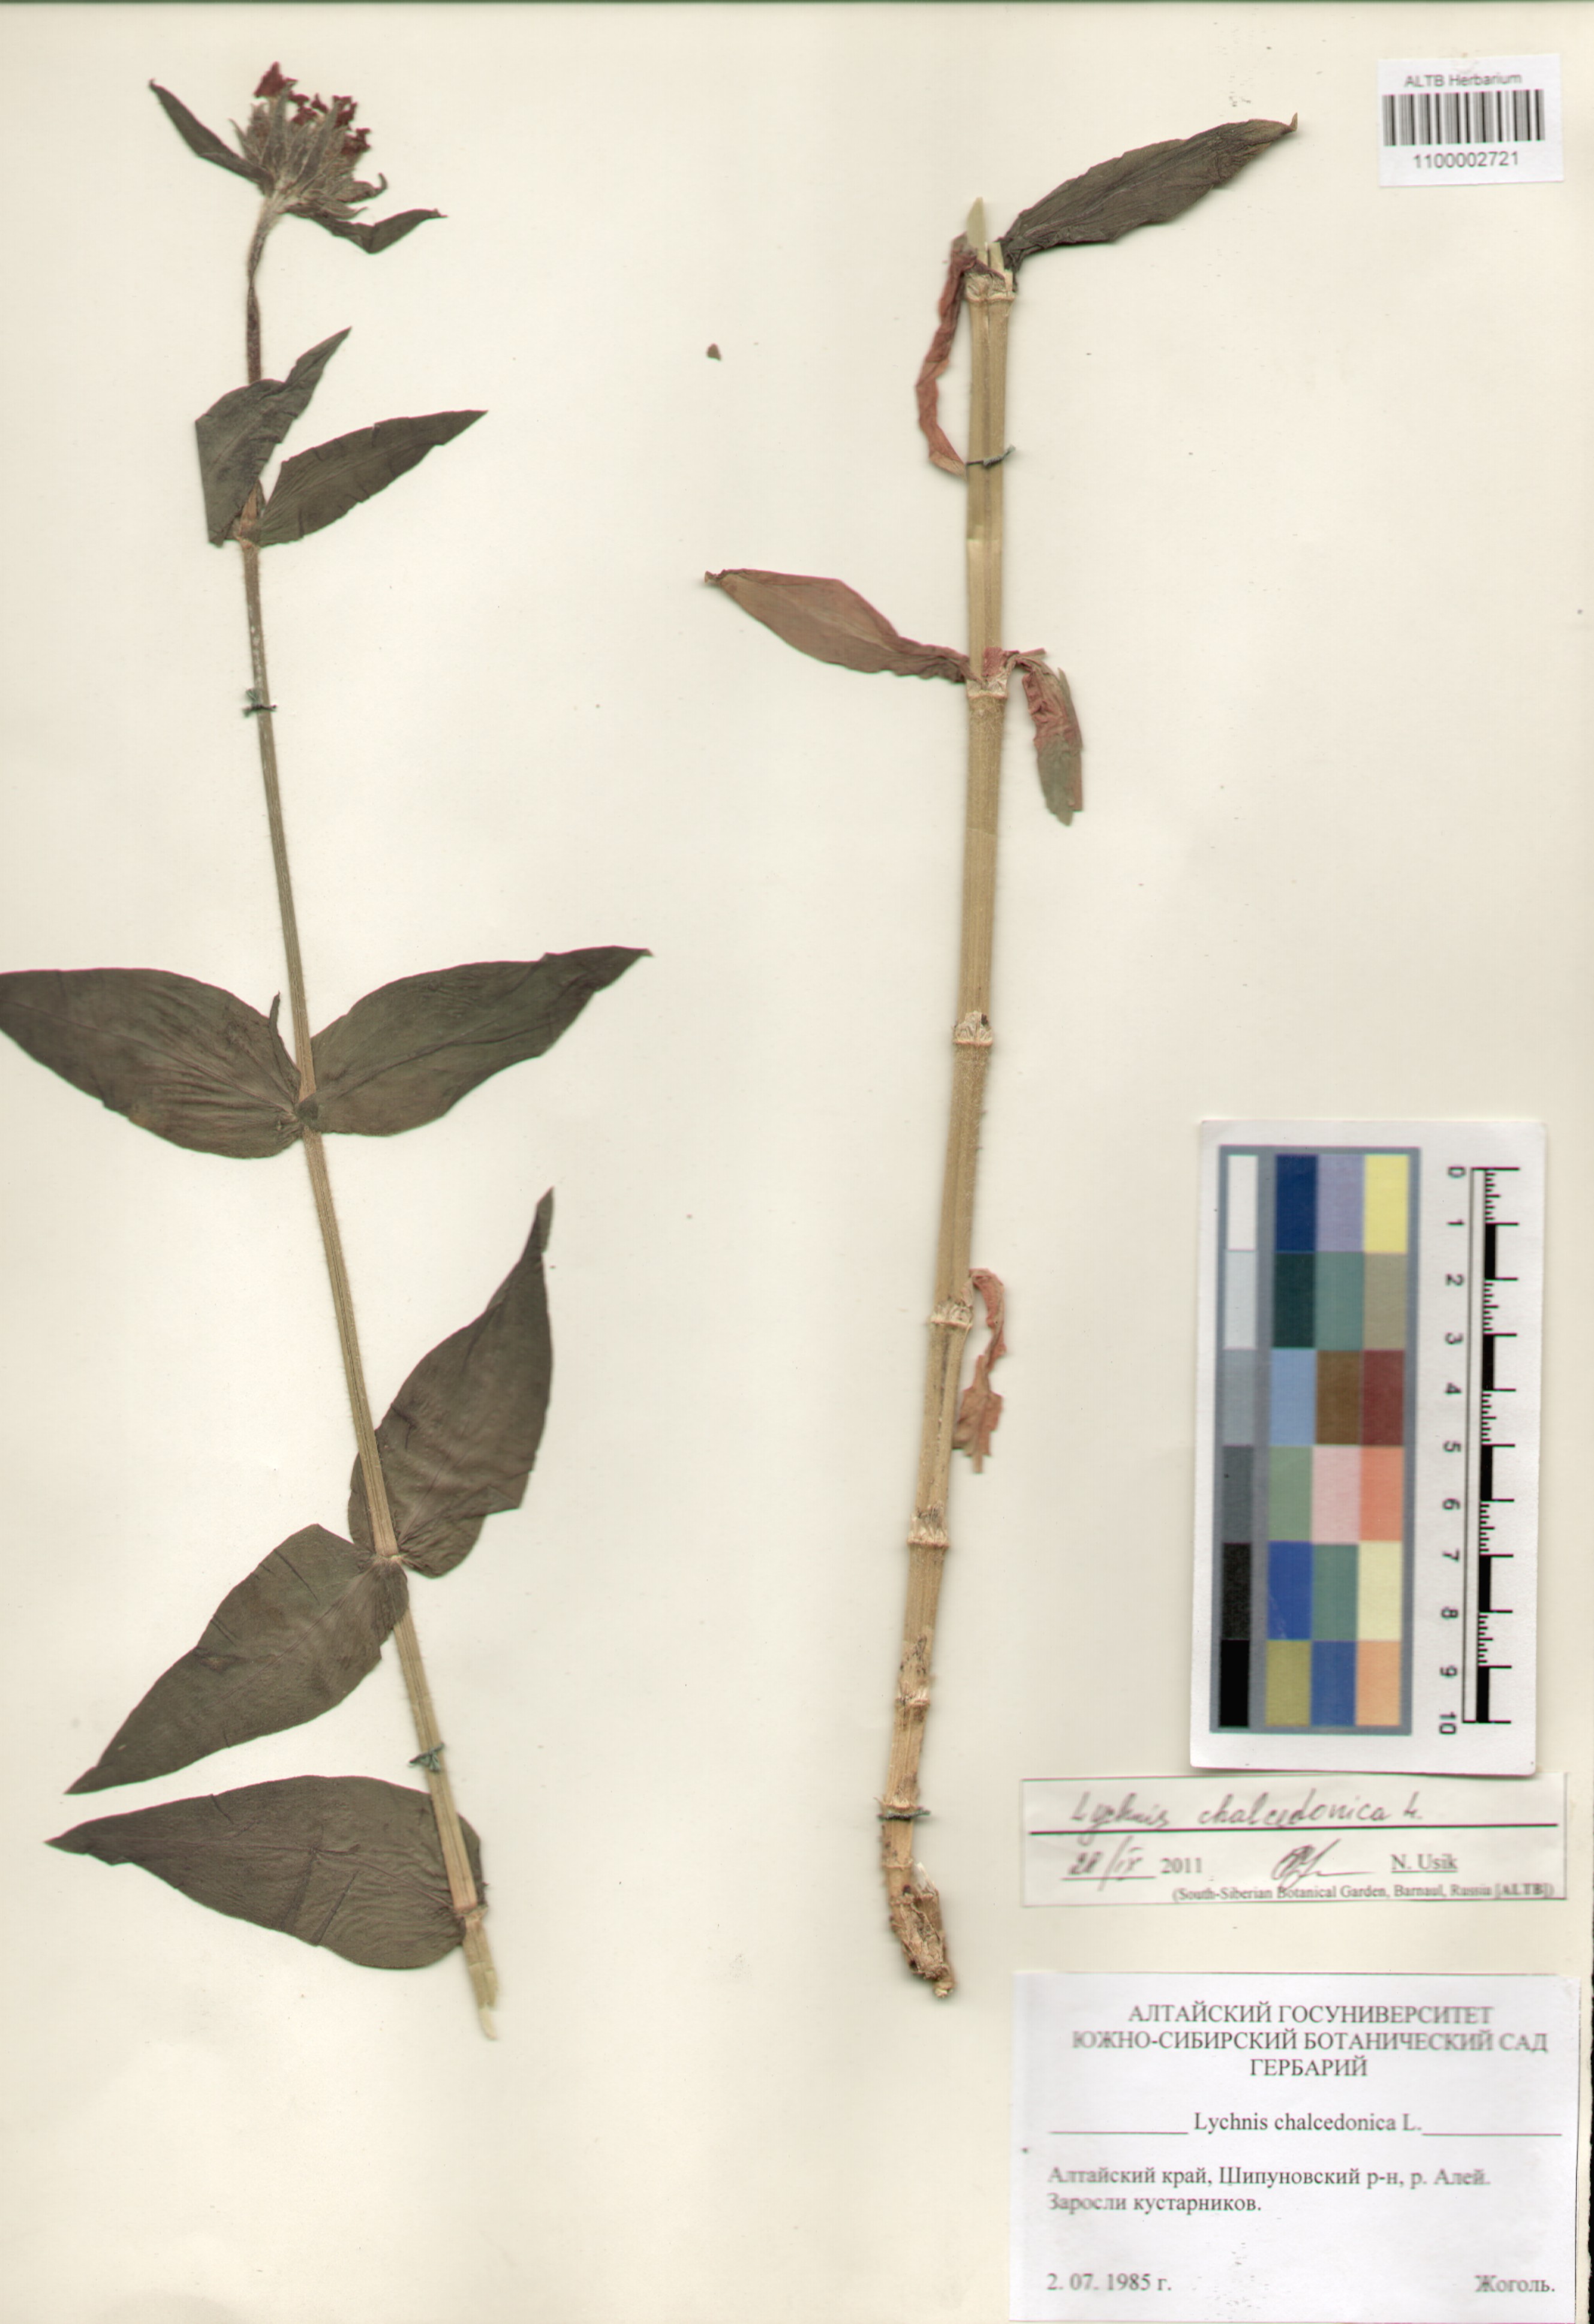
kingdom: Plantae
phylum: Tracheophyta
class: Magnoliopsida
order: Caryophyllales
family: Caryophyllaceae
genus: Silene
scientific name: Silene chalcedonica
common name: Maltese-cross
